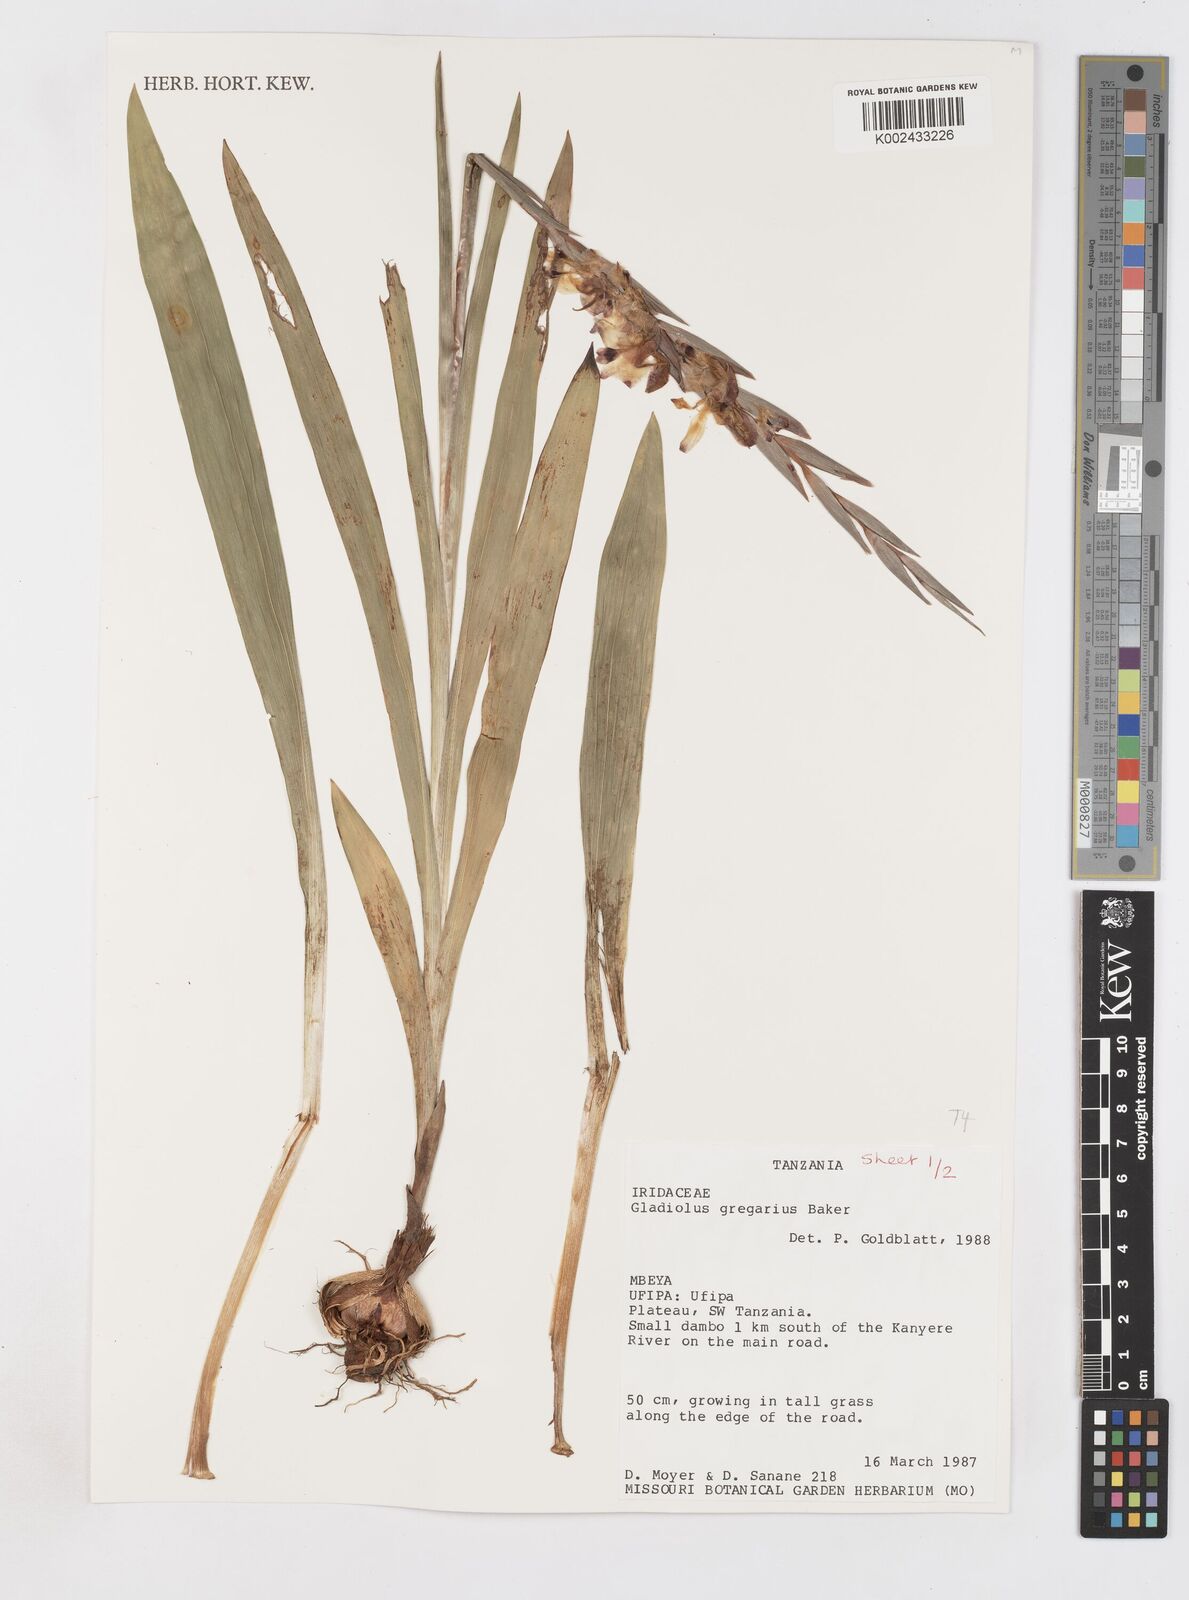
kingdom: Plantae
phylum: Tracheophyta
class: Liliopsida
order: Asparagales
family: Iridaceae
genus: Gladiolus
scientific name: Gladiolus gregarius
